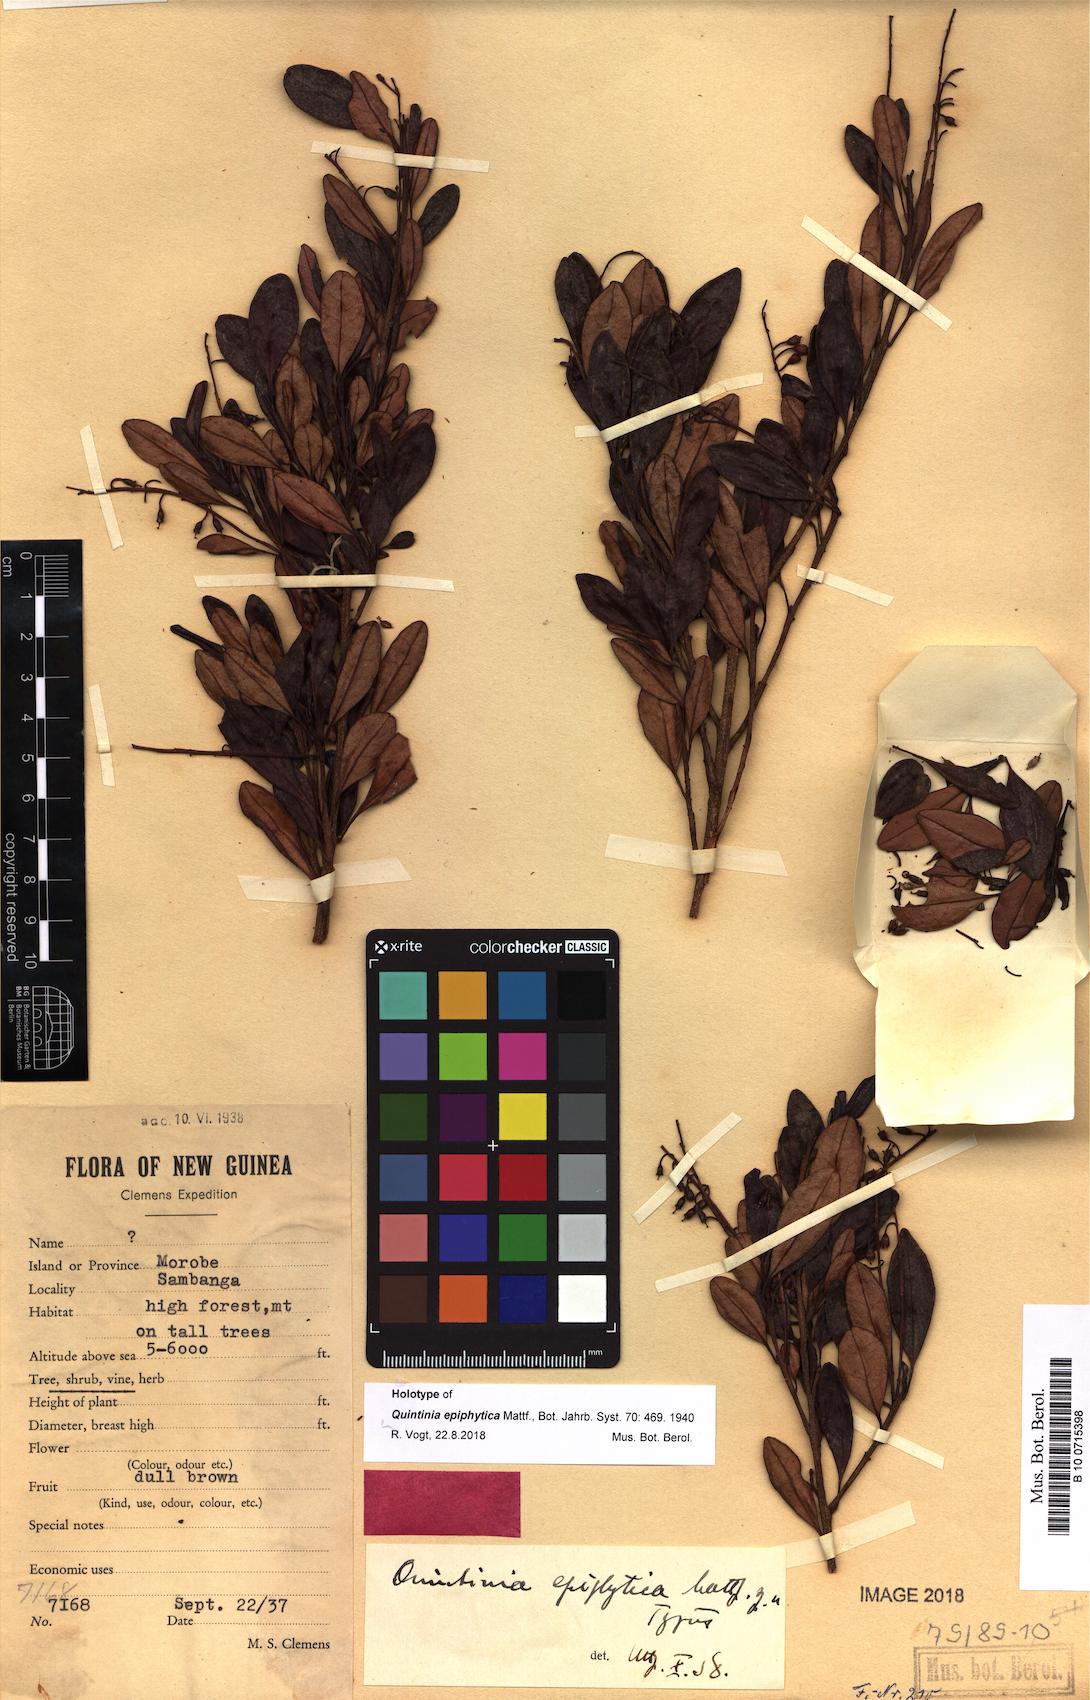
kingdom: Plantae
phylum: Tracheophyta
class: Magnoliopsida
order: Paracryphiales
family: Paracryphiaceae
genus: Quintinia
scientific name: Quintinia epiphytica
